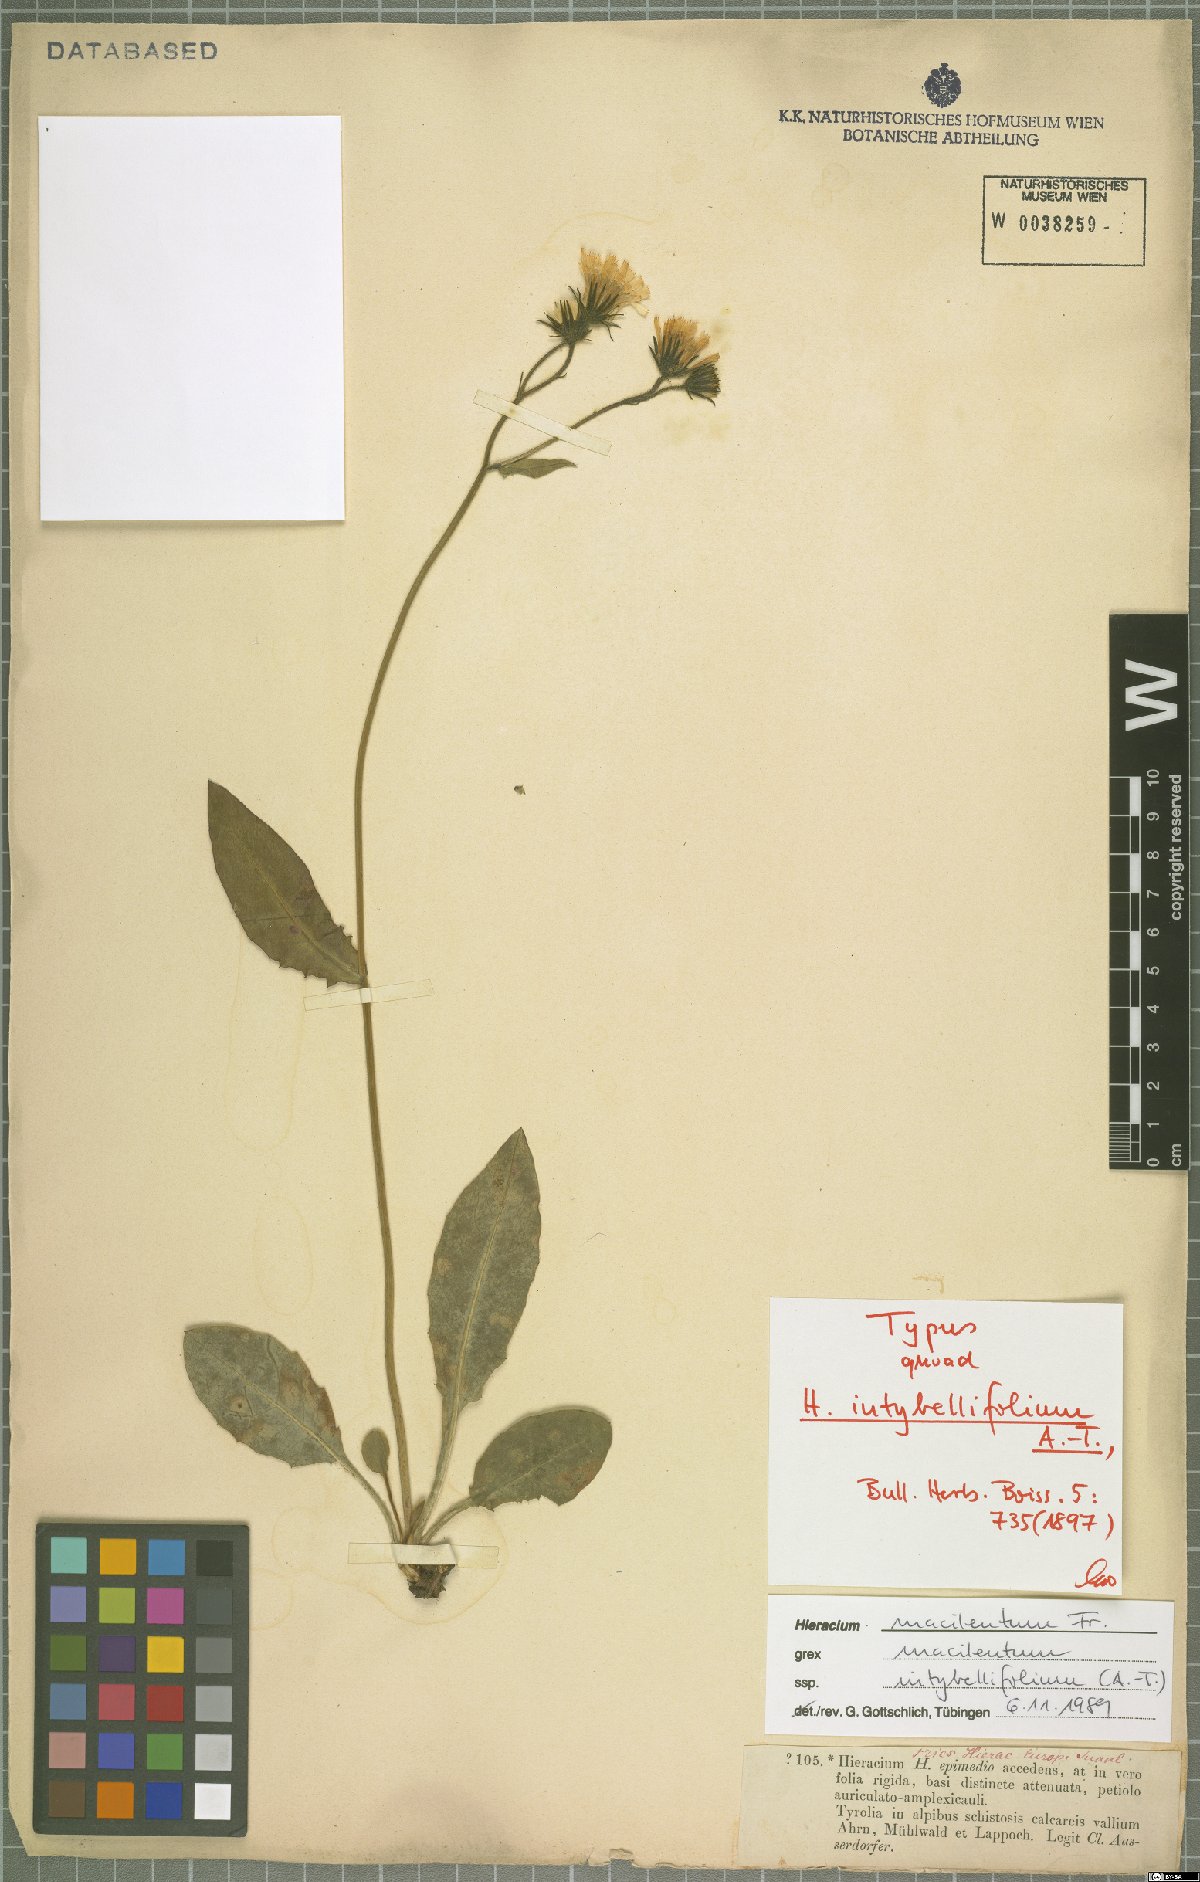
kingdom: Plantae
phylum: Tracheophyta
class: Magnoliopsida
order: Asterales
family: Asteraceae
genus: Hieracium
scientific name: Hieracium froelichianum
